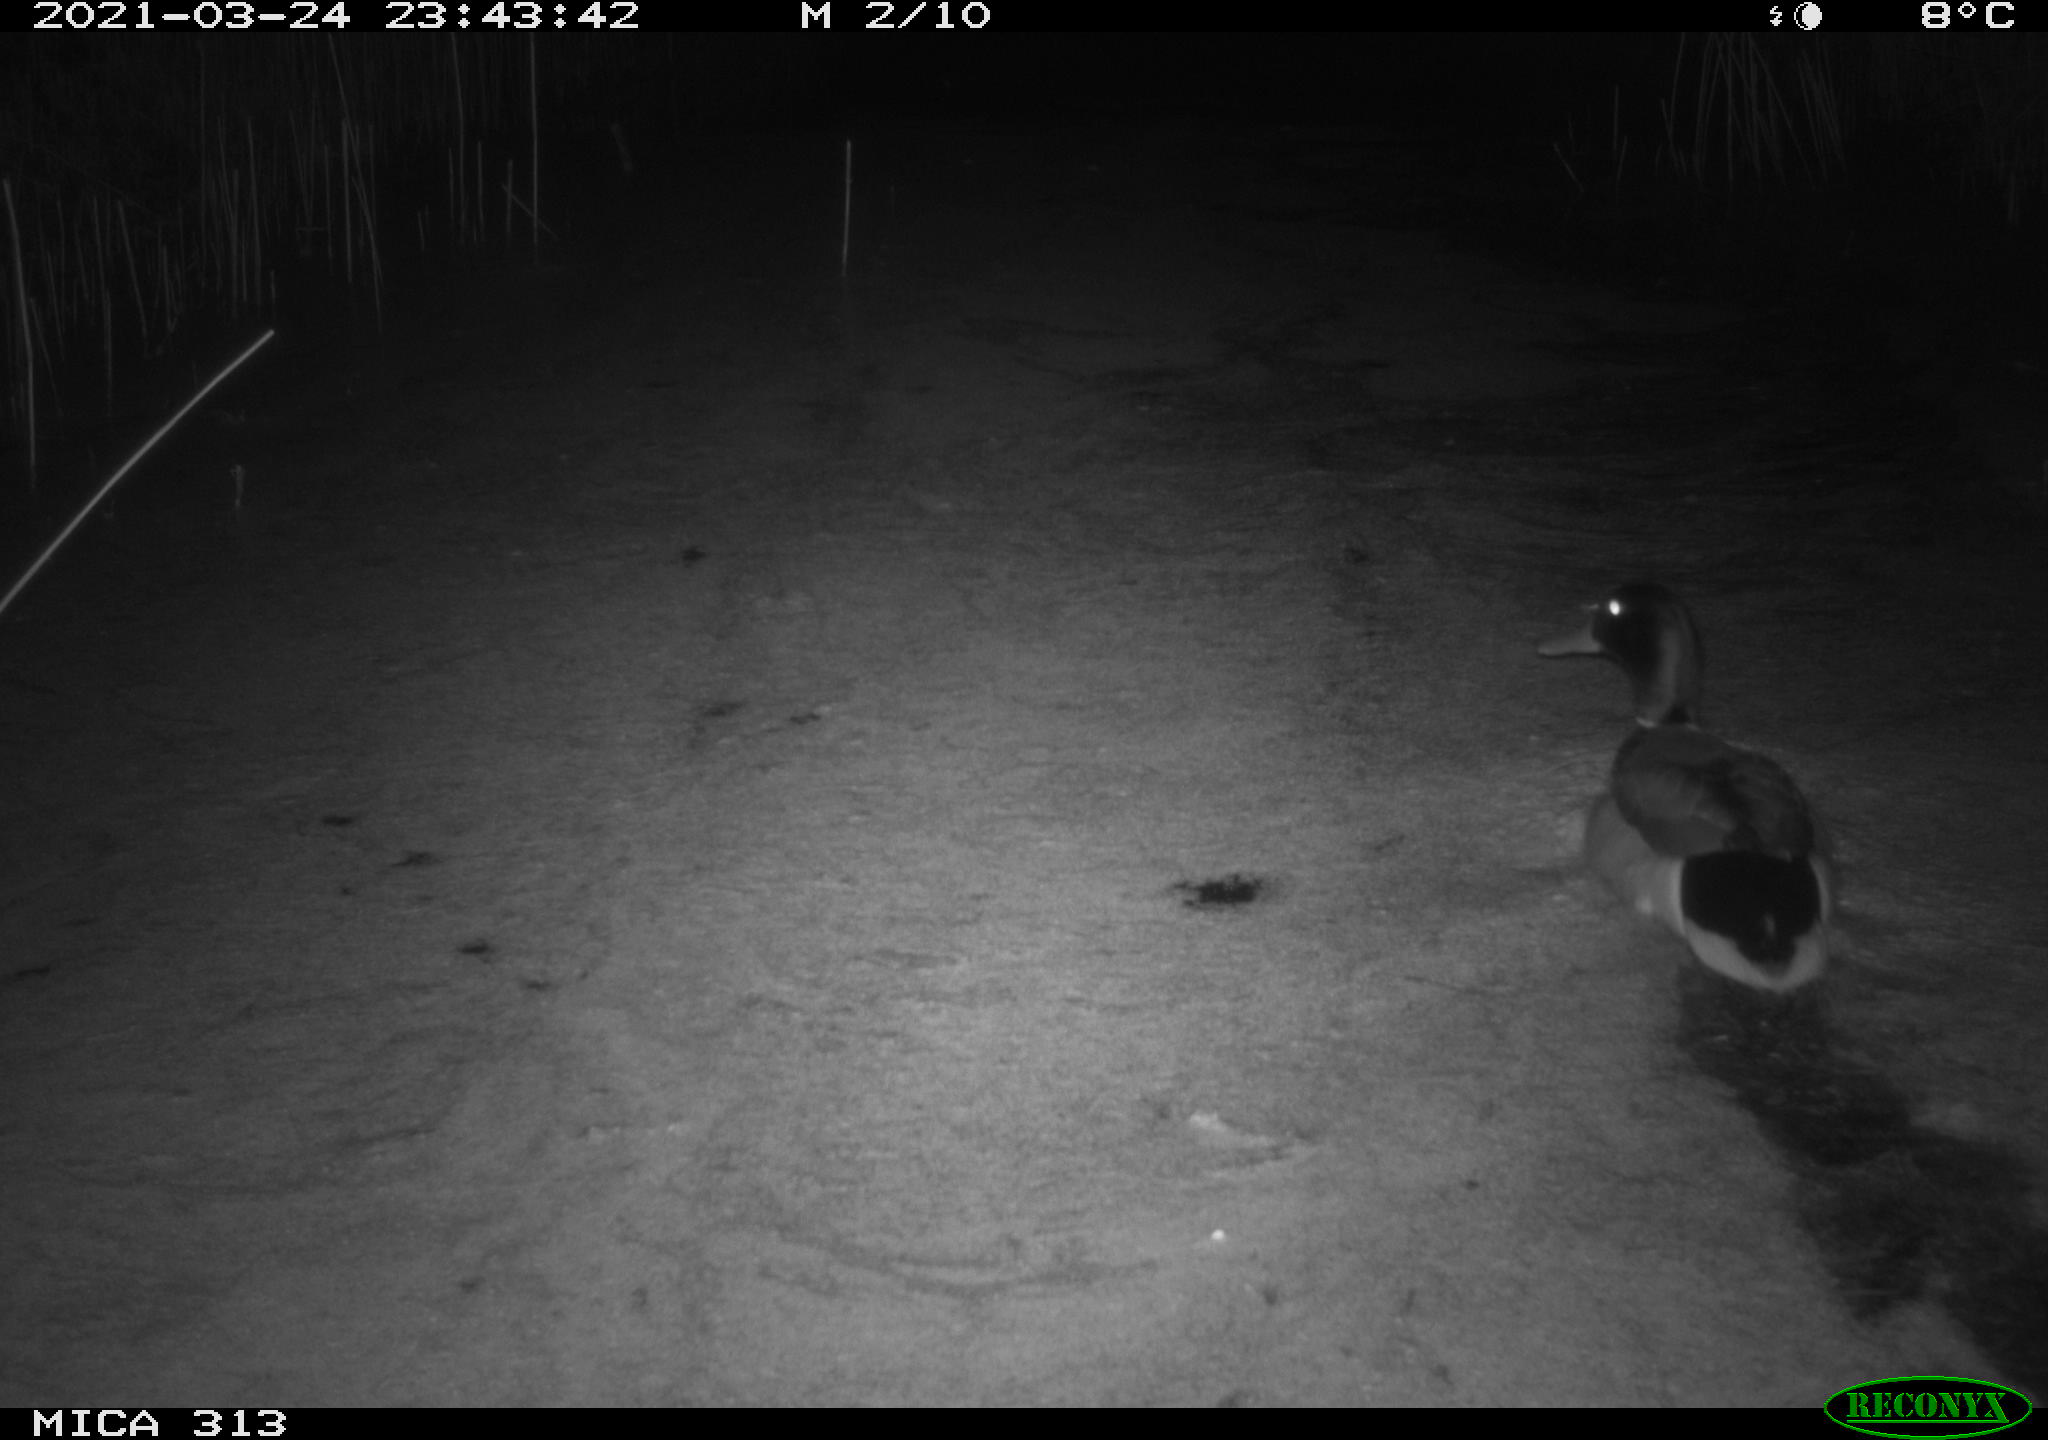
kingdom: Animalia
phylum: Chordata
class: Aves
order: Anseriformes
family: Anatidae
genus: Anas
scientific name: Anas platyrhynchos
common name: Mallard
